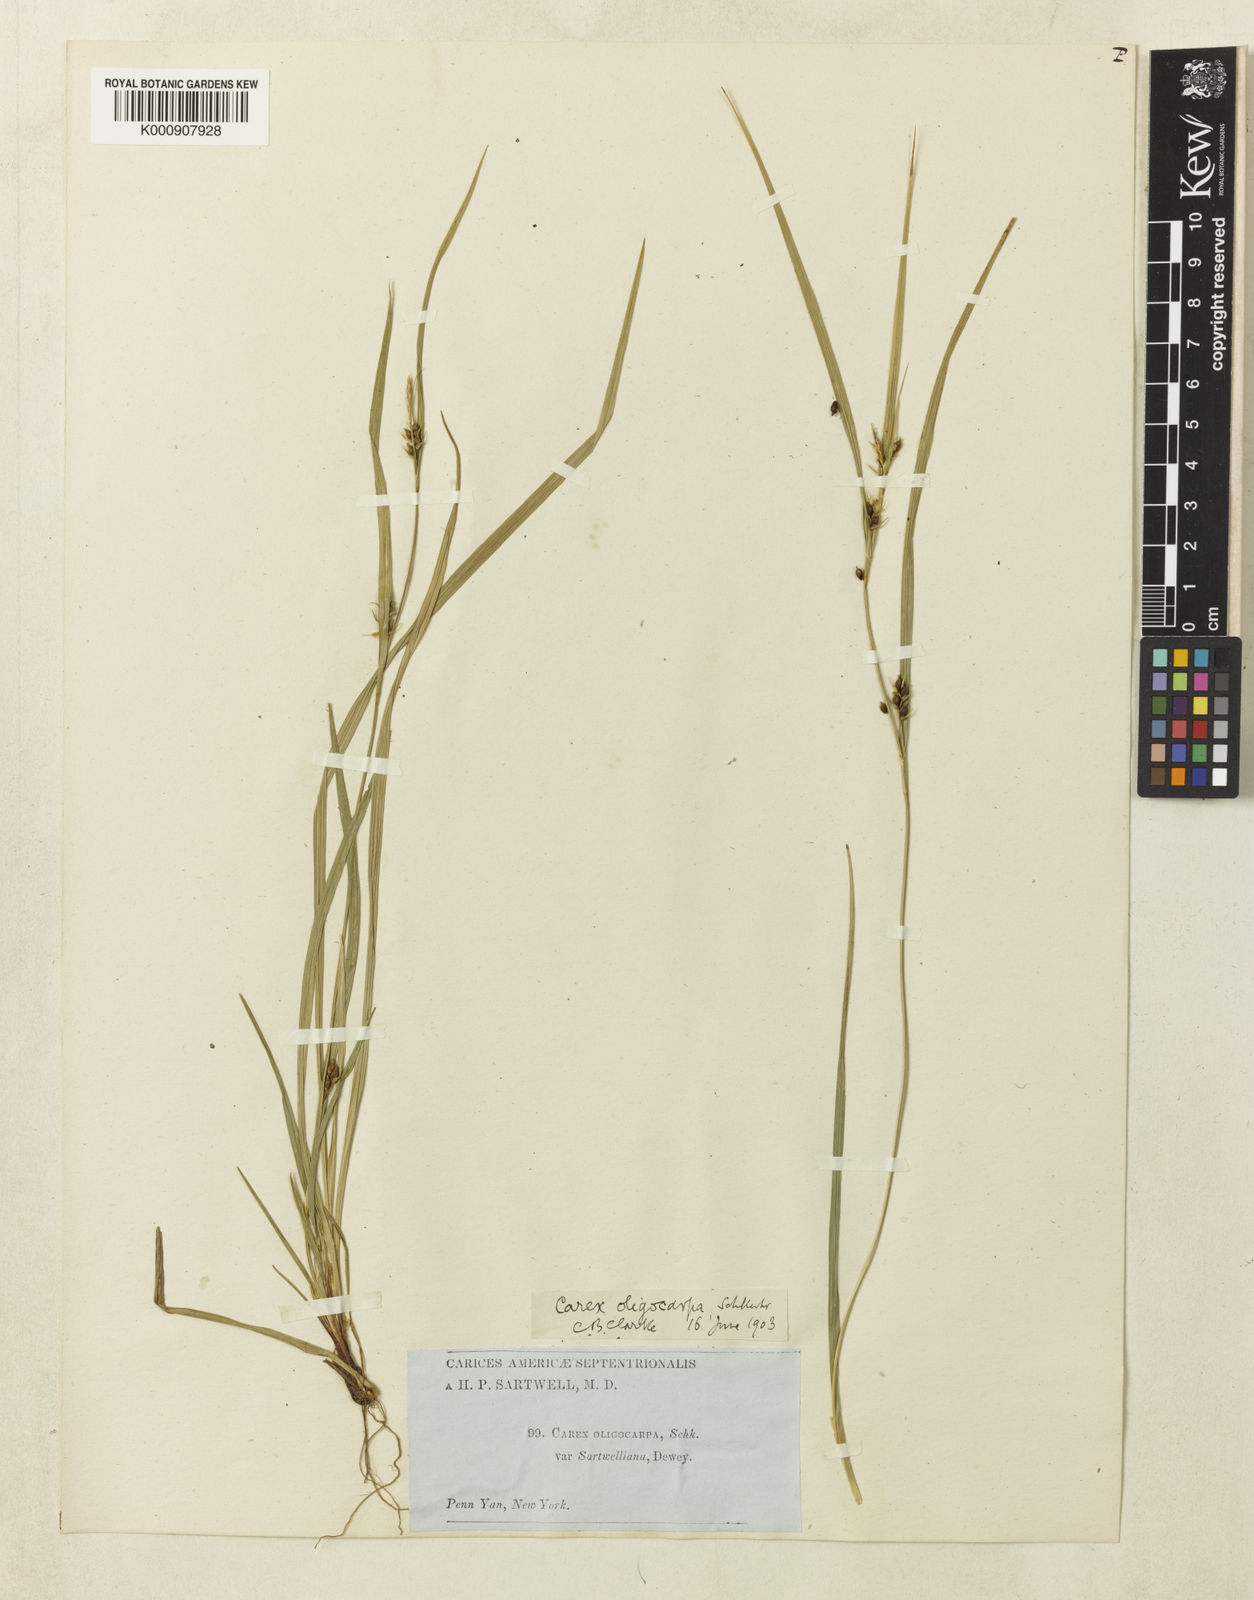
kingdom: Plantae
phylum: Tracheophyta
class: Liliopsida
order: Poales
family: Cyperaceae
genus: Carex
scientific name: Carex
